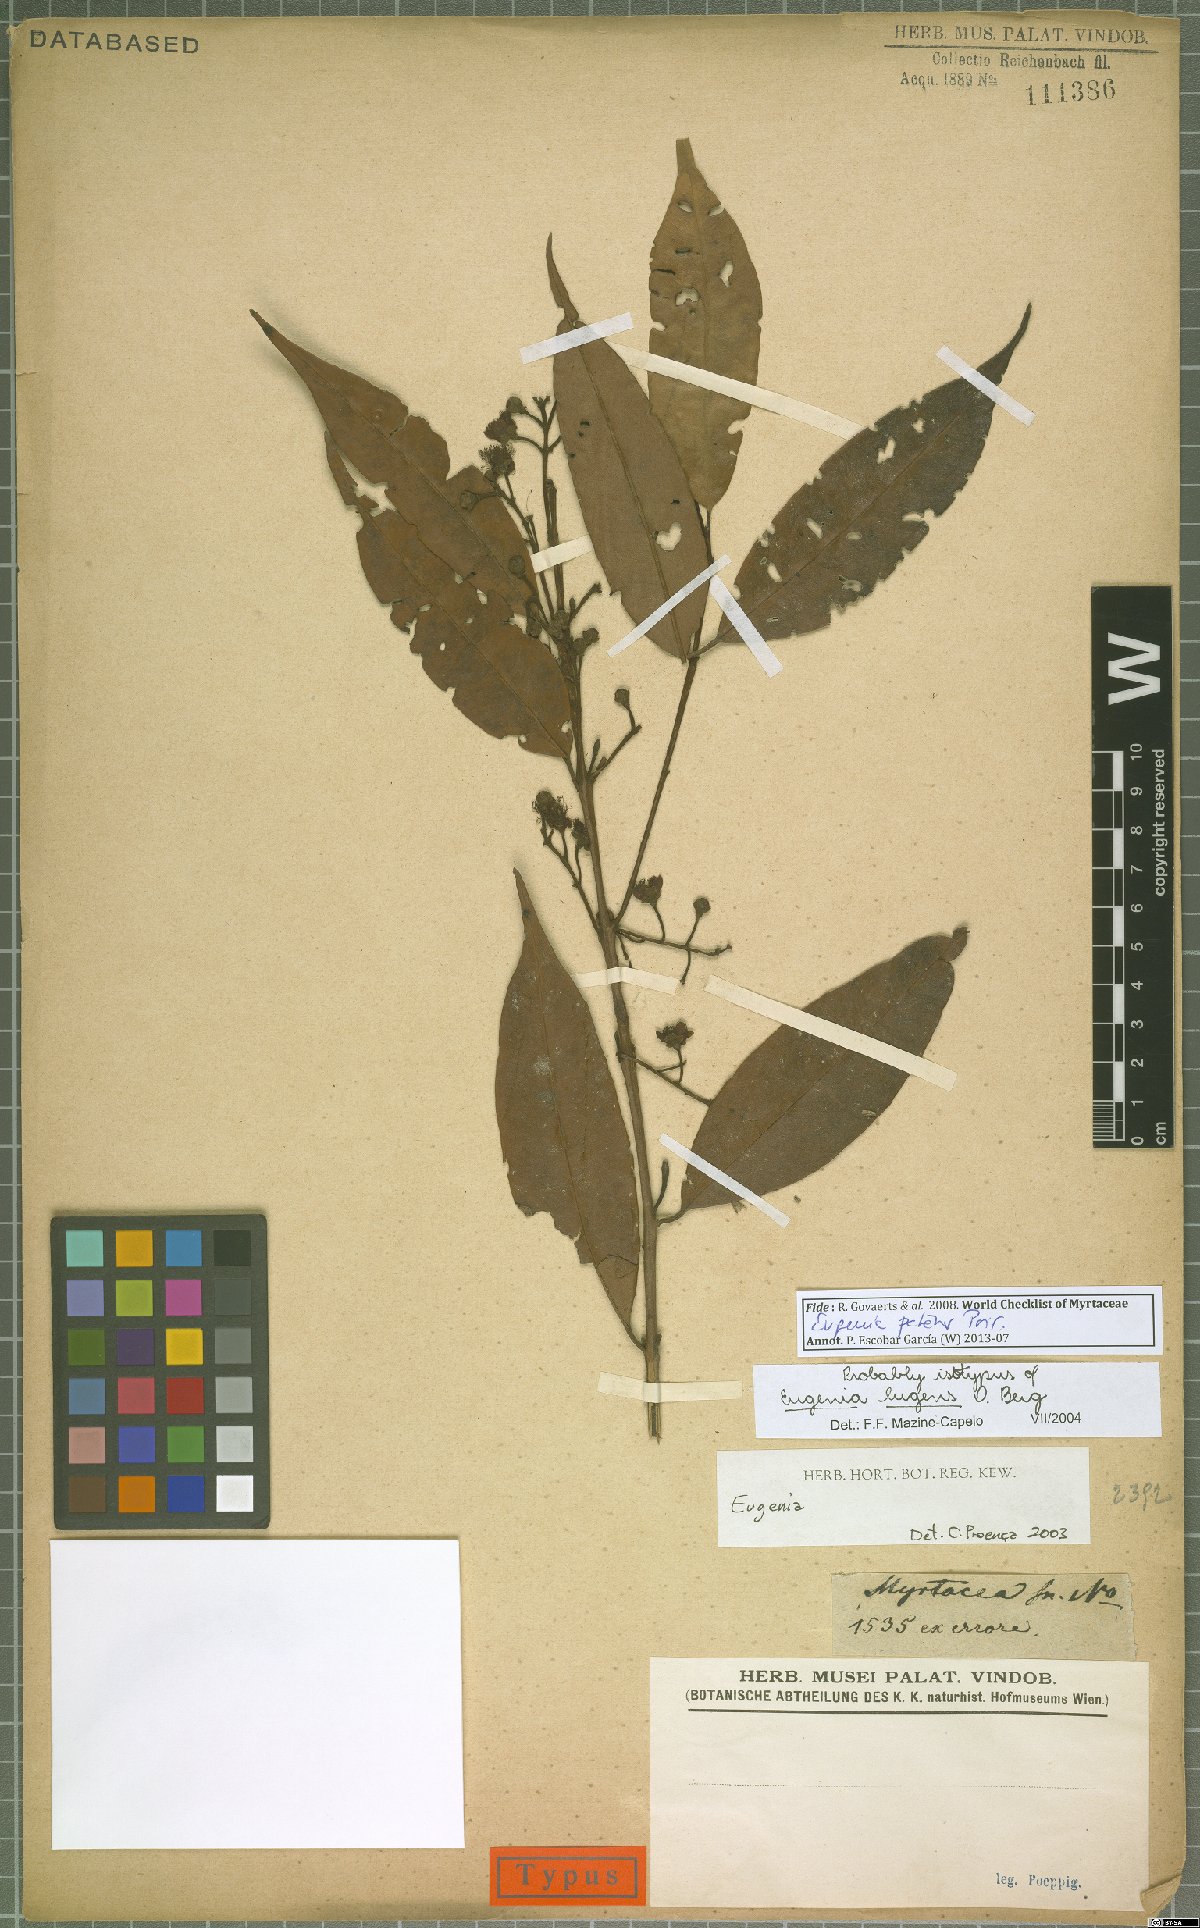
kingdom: Plantae
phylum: Tracheophyta
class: Magnoliopsida
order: Myrtales
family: Myrtaceae
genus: Eugenia
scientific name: Eugenia patens
